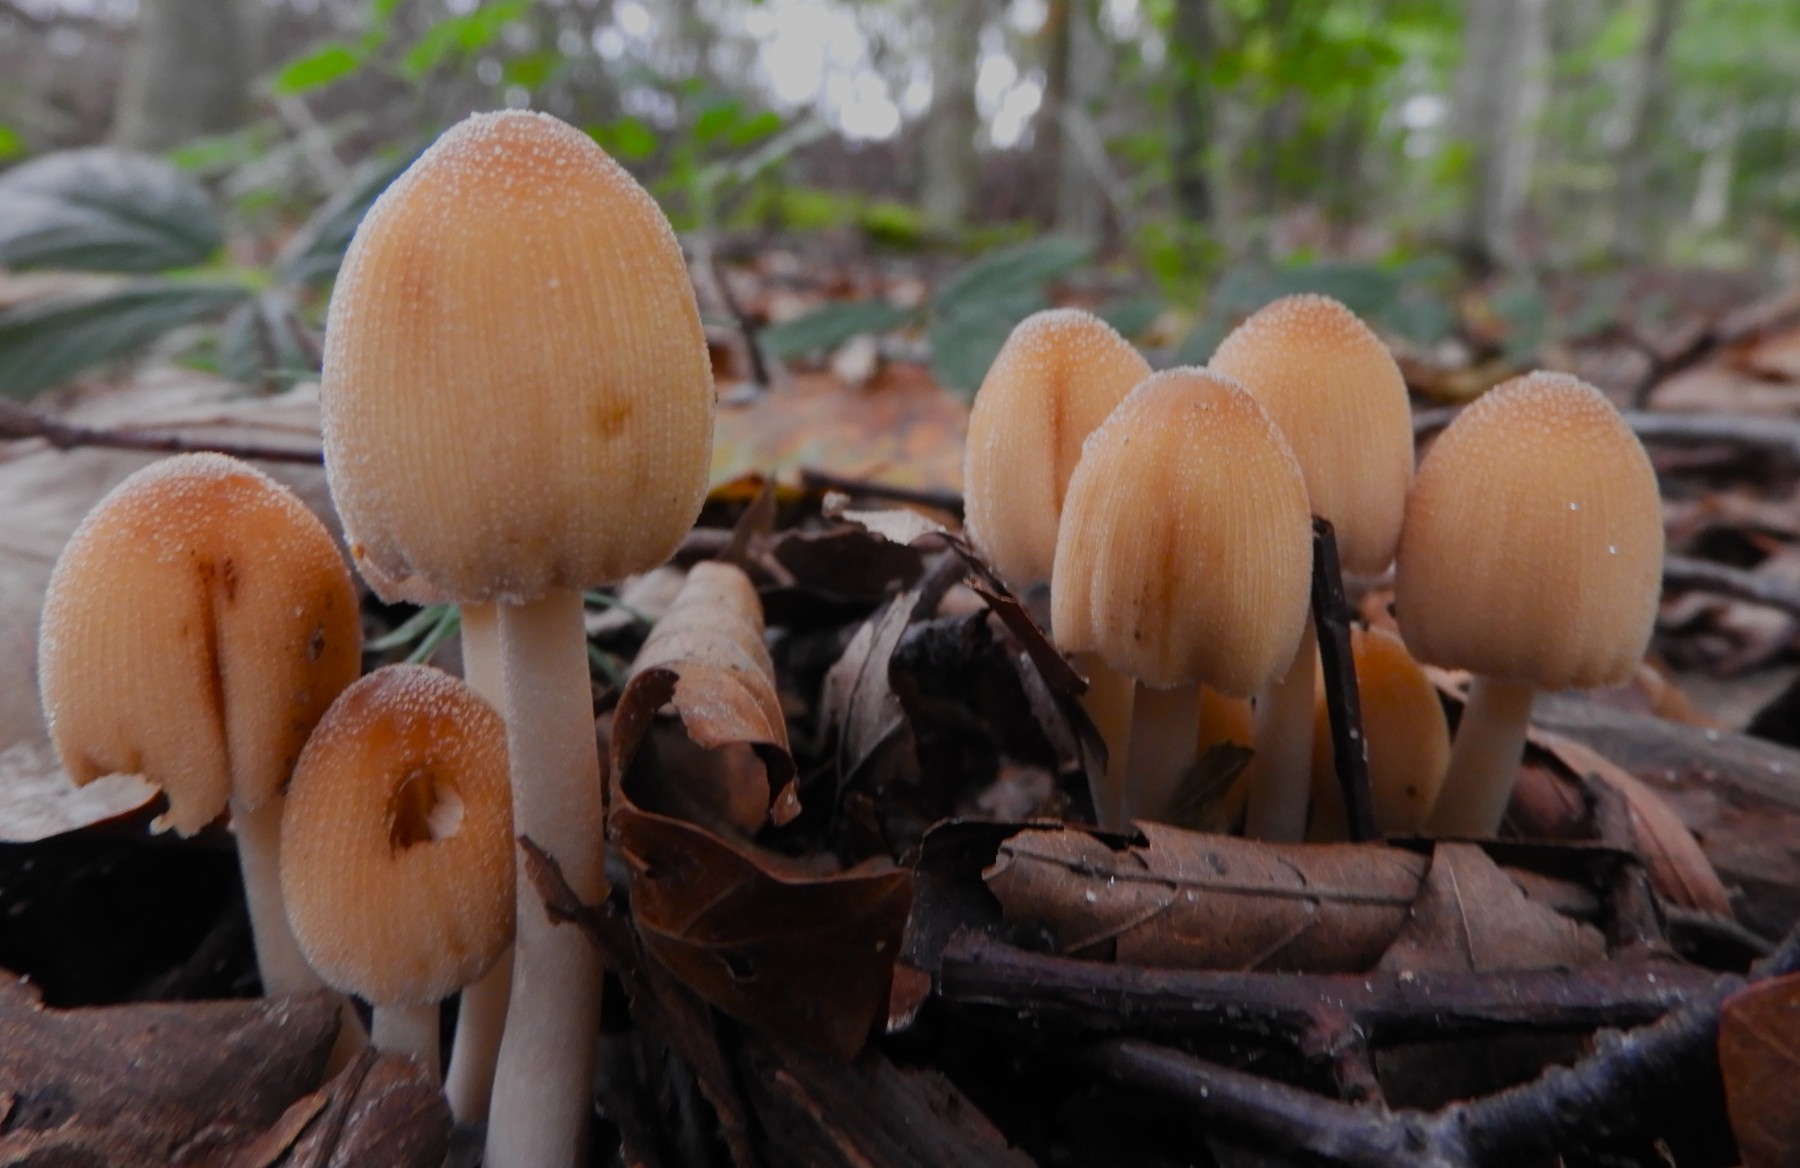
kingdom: Fungi
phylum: Basidiomycota
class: Agaricomycetes
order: Agaricales
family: Psathyrellaceae
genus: Coprinellus
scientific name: Coprinellus micaceus
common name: glimmer-blækhat
